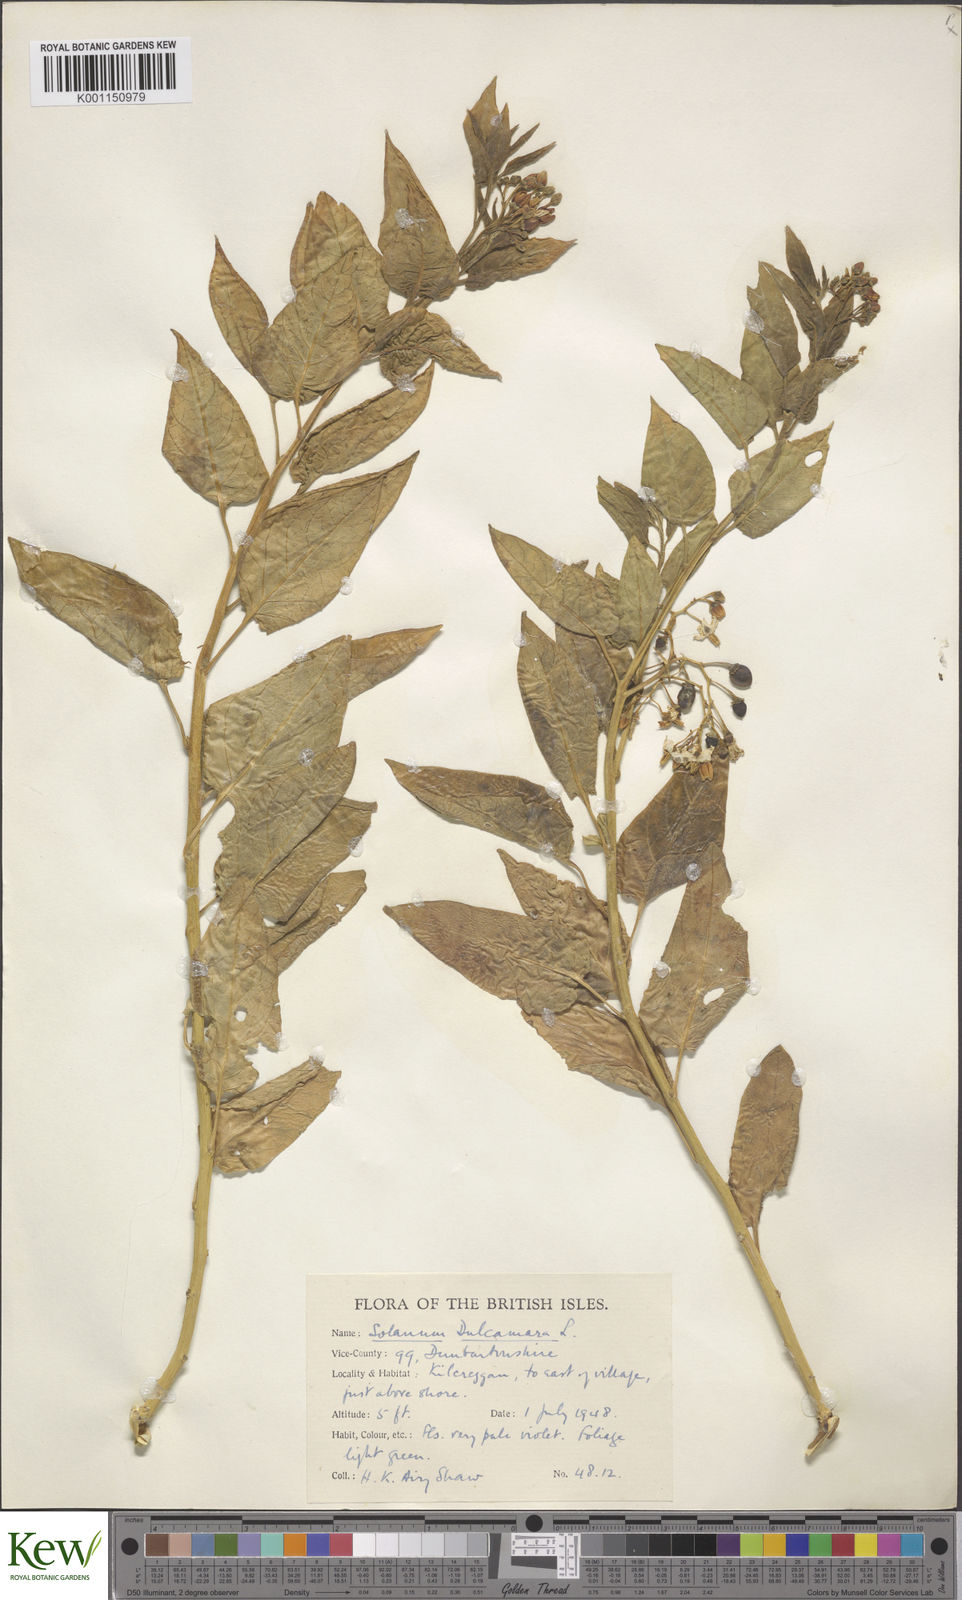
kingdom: Plantae
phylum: Tracheophyta
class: Magnoliopsida
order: Solanales
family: Solanaceae
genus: Solanum
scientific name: Solanum dulcamara
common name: Climbing nightshade
